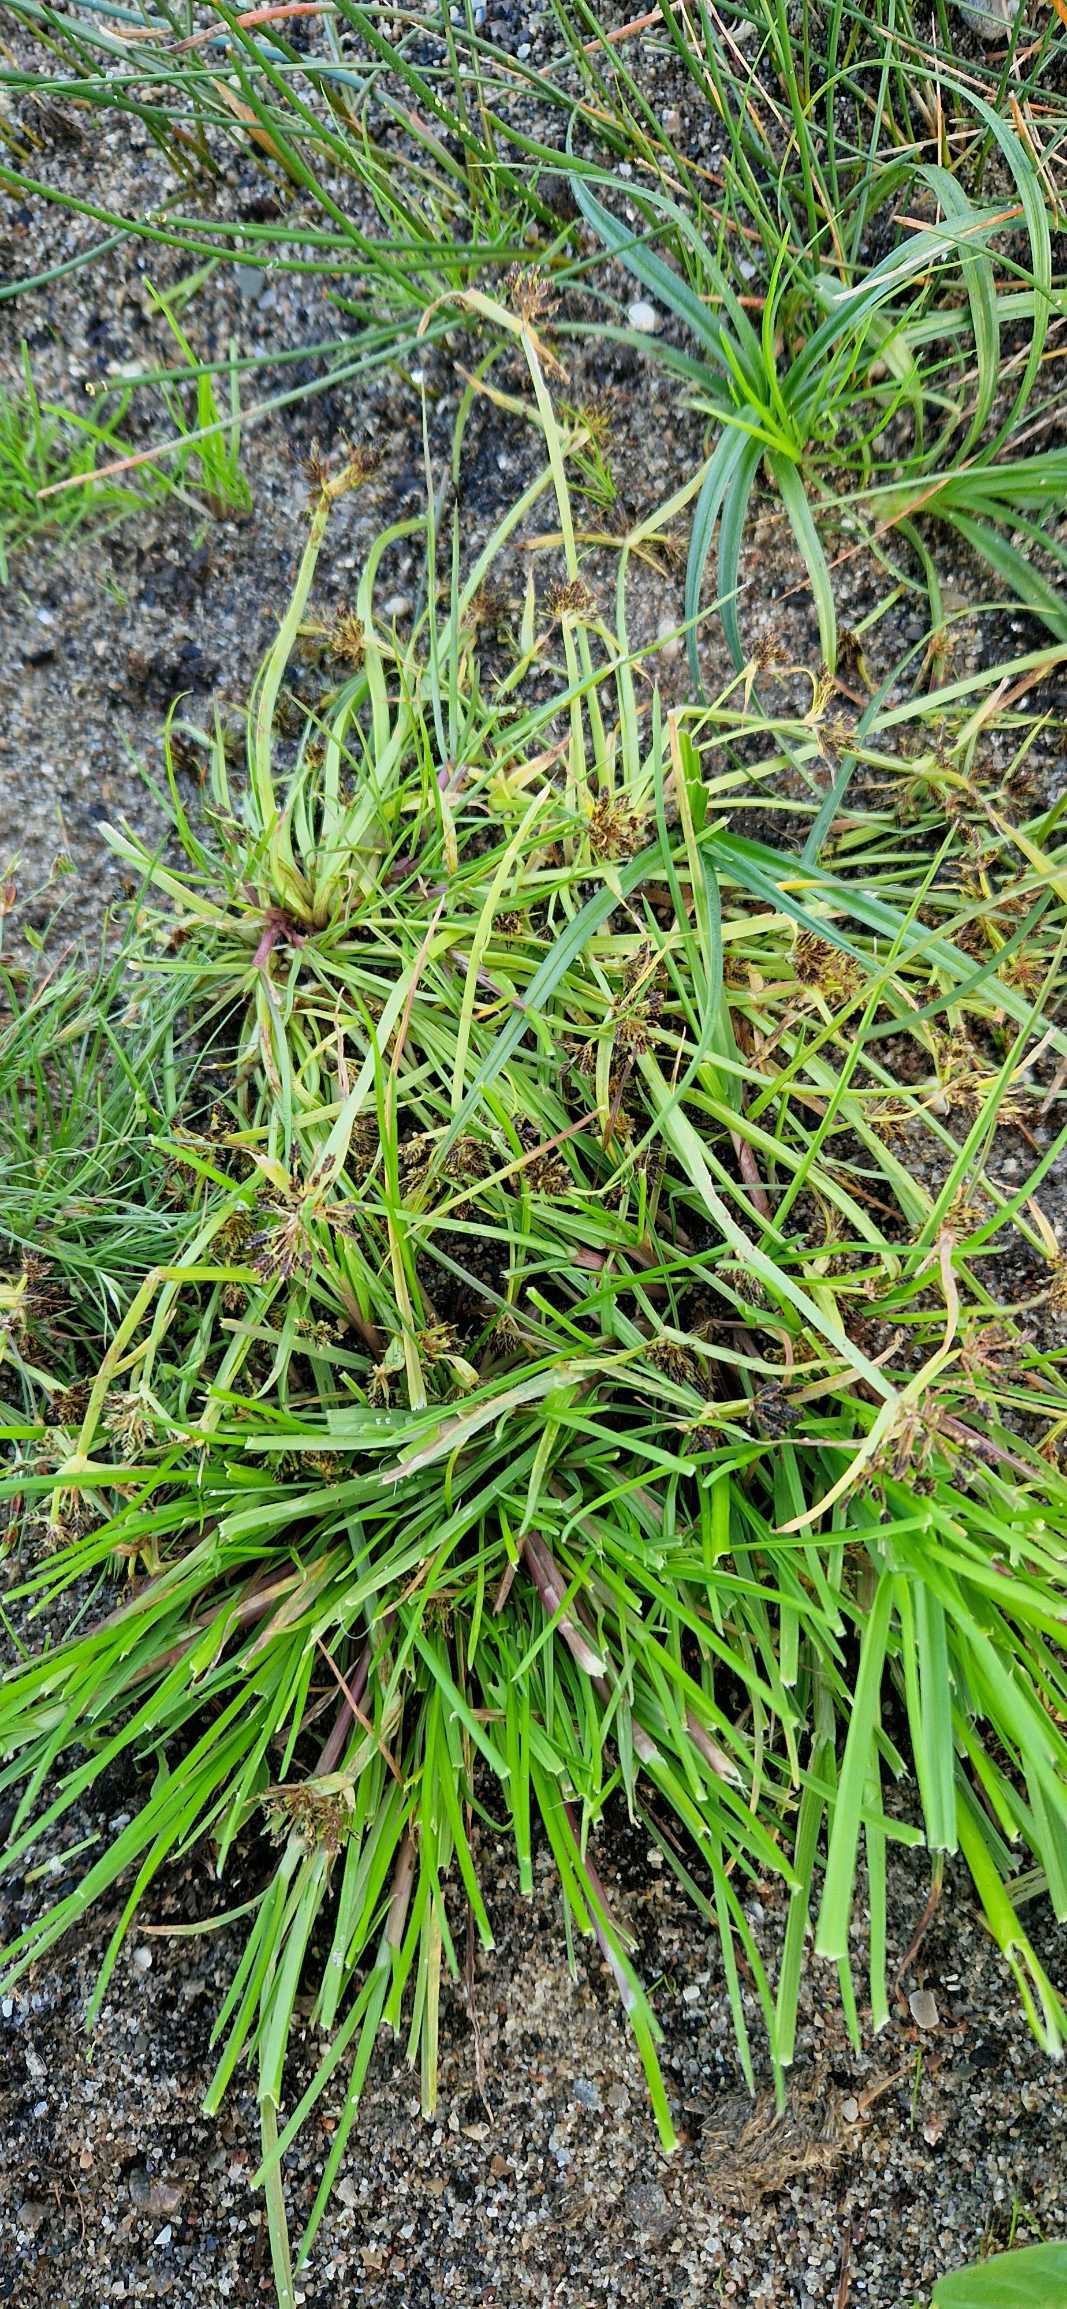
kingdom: Plantae
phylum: Tracheophyta
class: Liliopsida
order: Poales
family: Cyperaceae
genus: Cyperus
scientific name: Cyperus fuscus
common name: Brun fladaks
